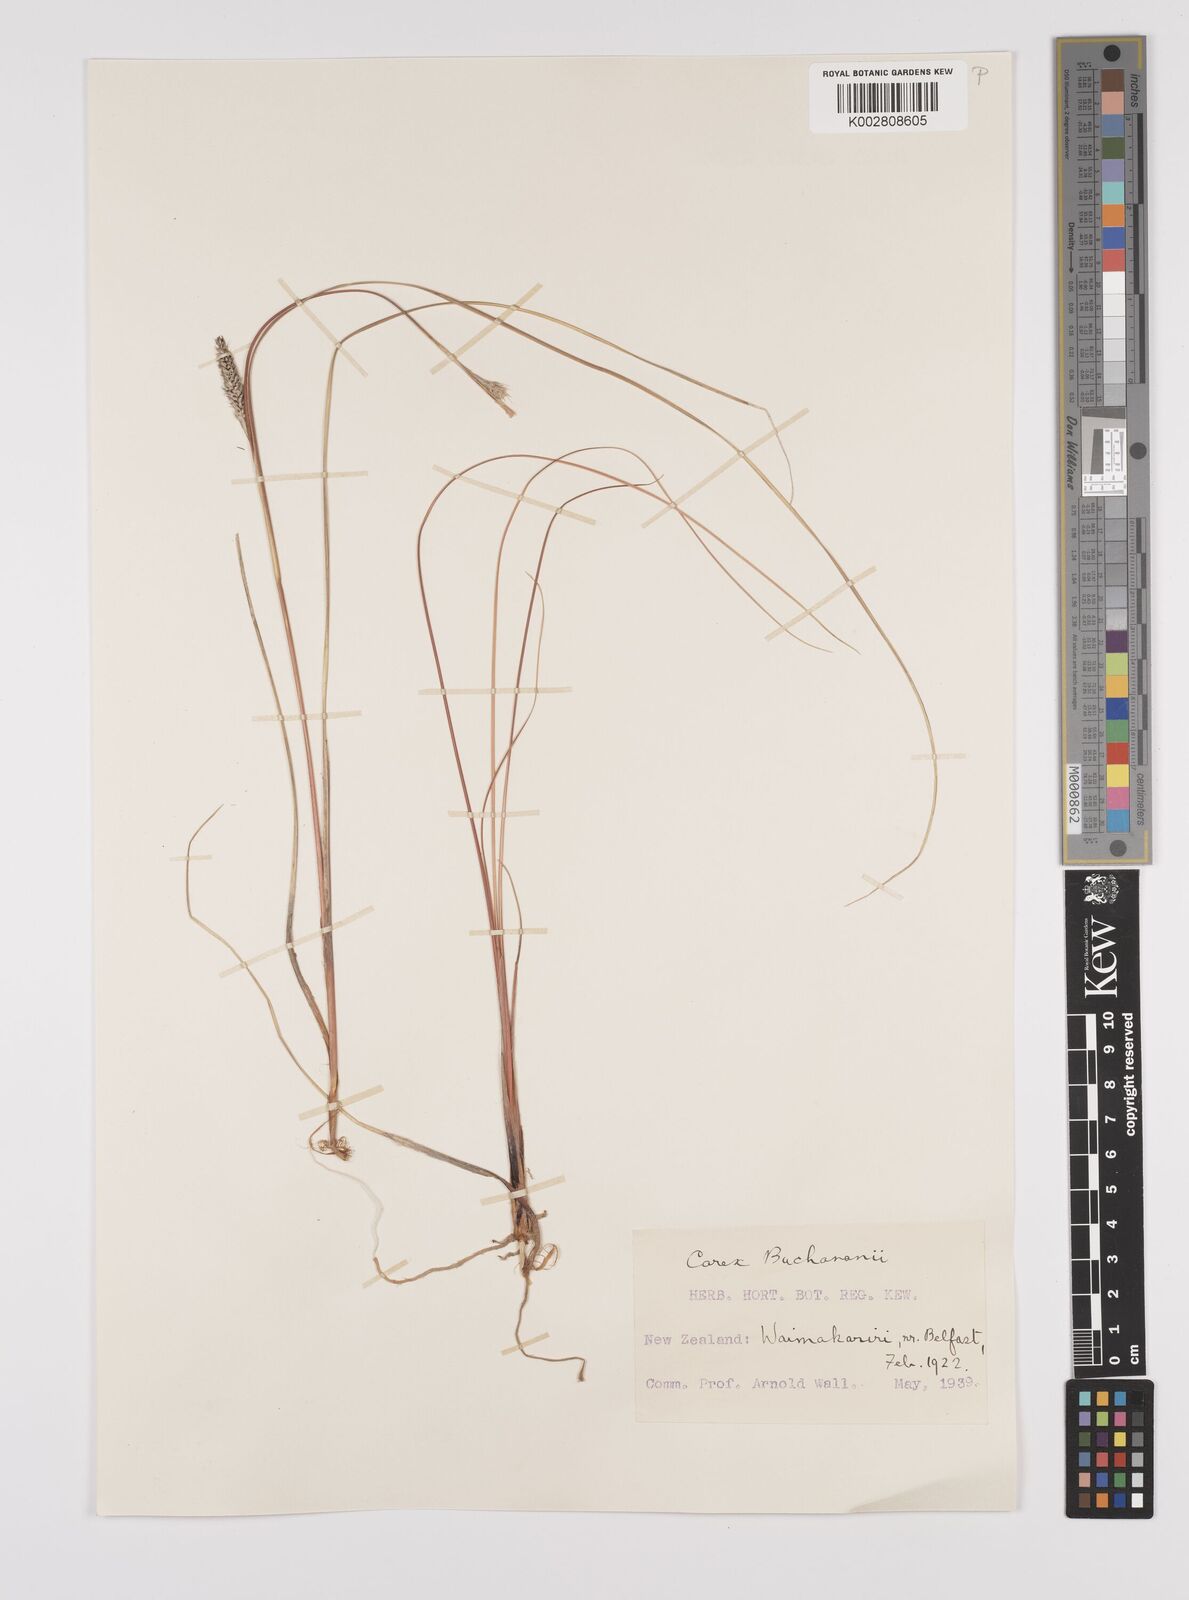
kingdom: Plantae
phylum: Tracheophyta
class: Liliopsida
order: Poales
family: Cyperaceae
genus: Carex
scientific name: Carex flagellifera
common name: Glen murray tussock
